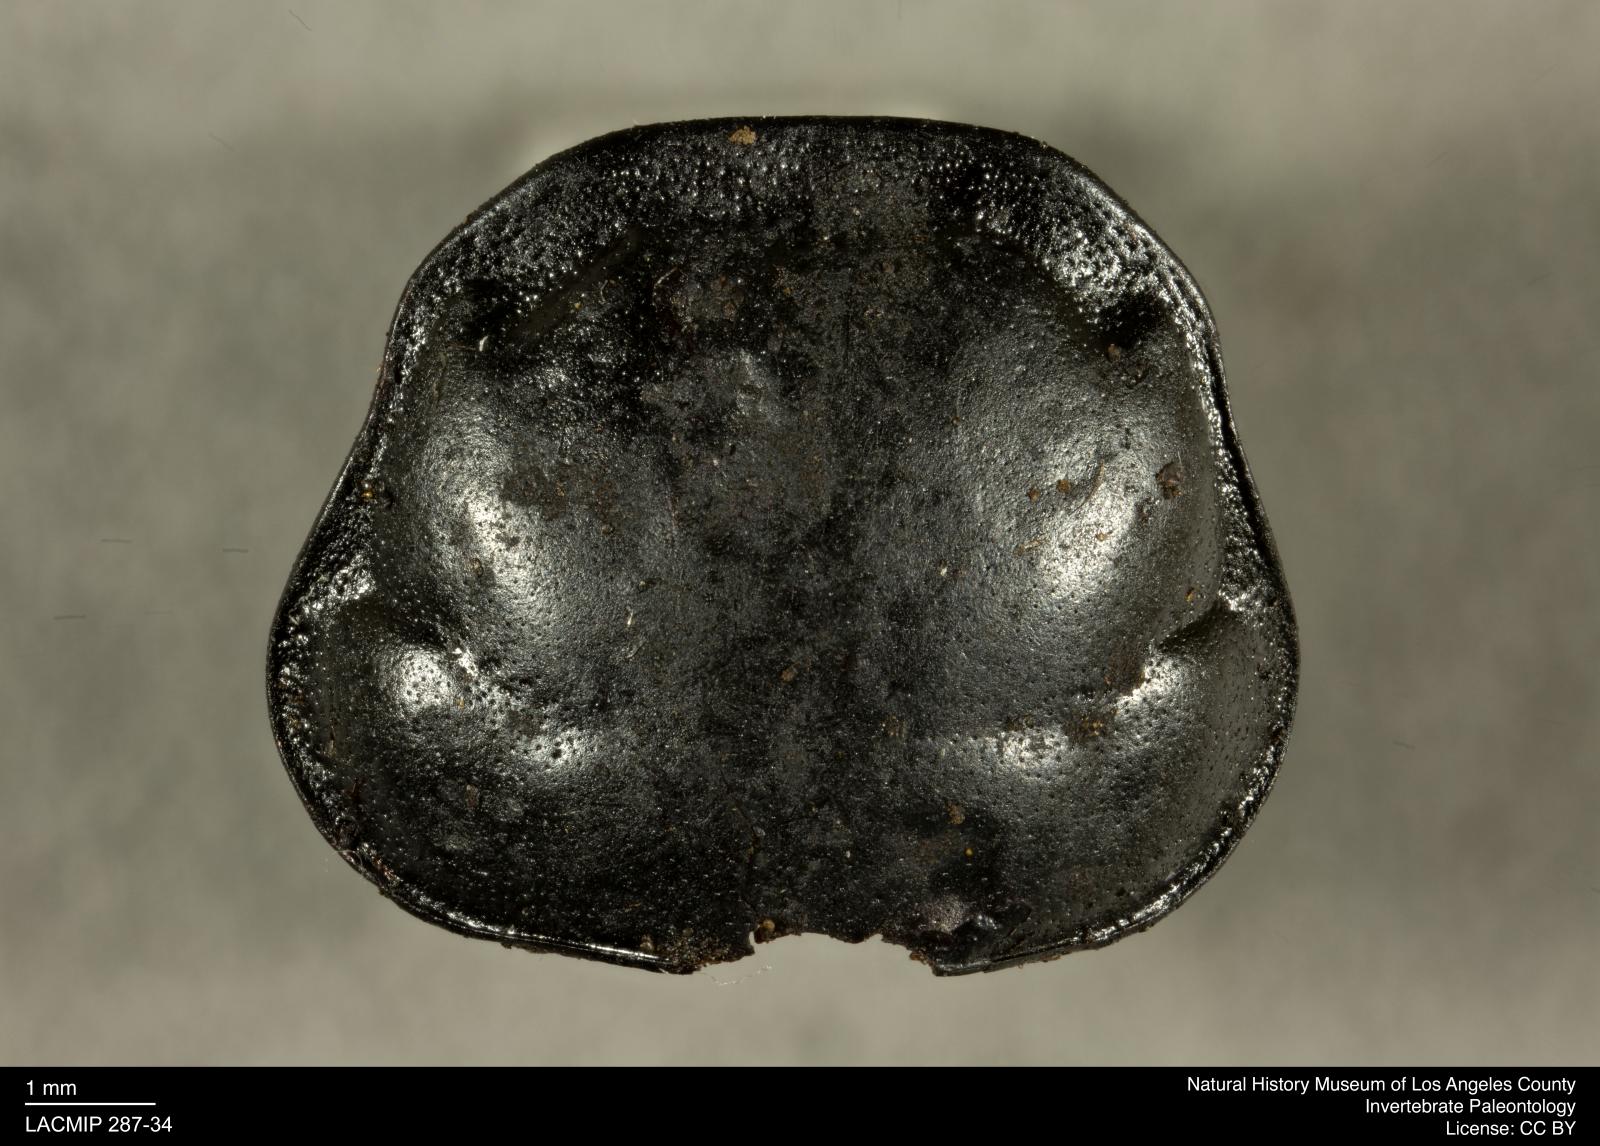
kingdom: Animalia
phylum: Arthropoda
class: Insecta
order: Coleoptera
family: Staphylinidae
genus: Nicrophorus
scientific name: Nicrophorus marginatus
